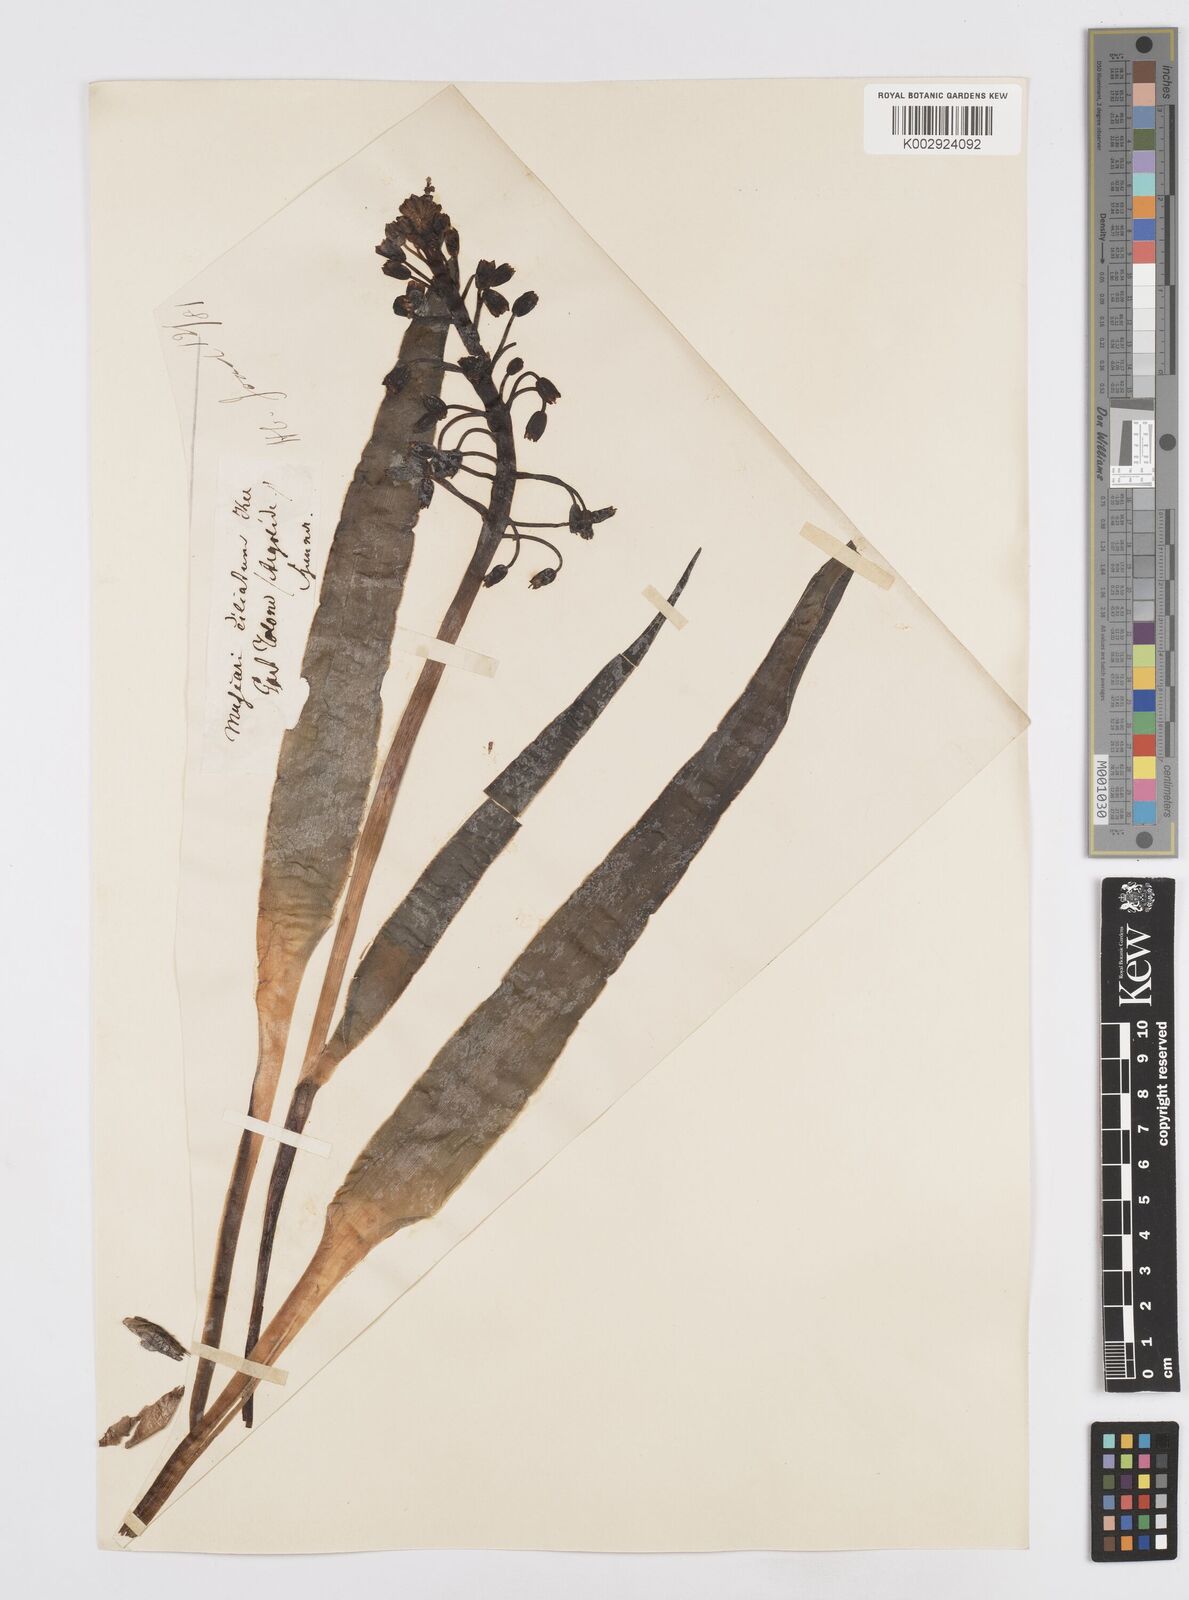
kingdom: Plantae
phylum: Tracheophyta
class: Liliopsida
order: Asparagales
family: Asparagaceae
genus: Bellevalia
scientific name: Bellevalia ciliata
